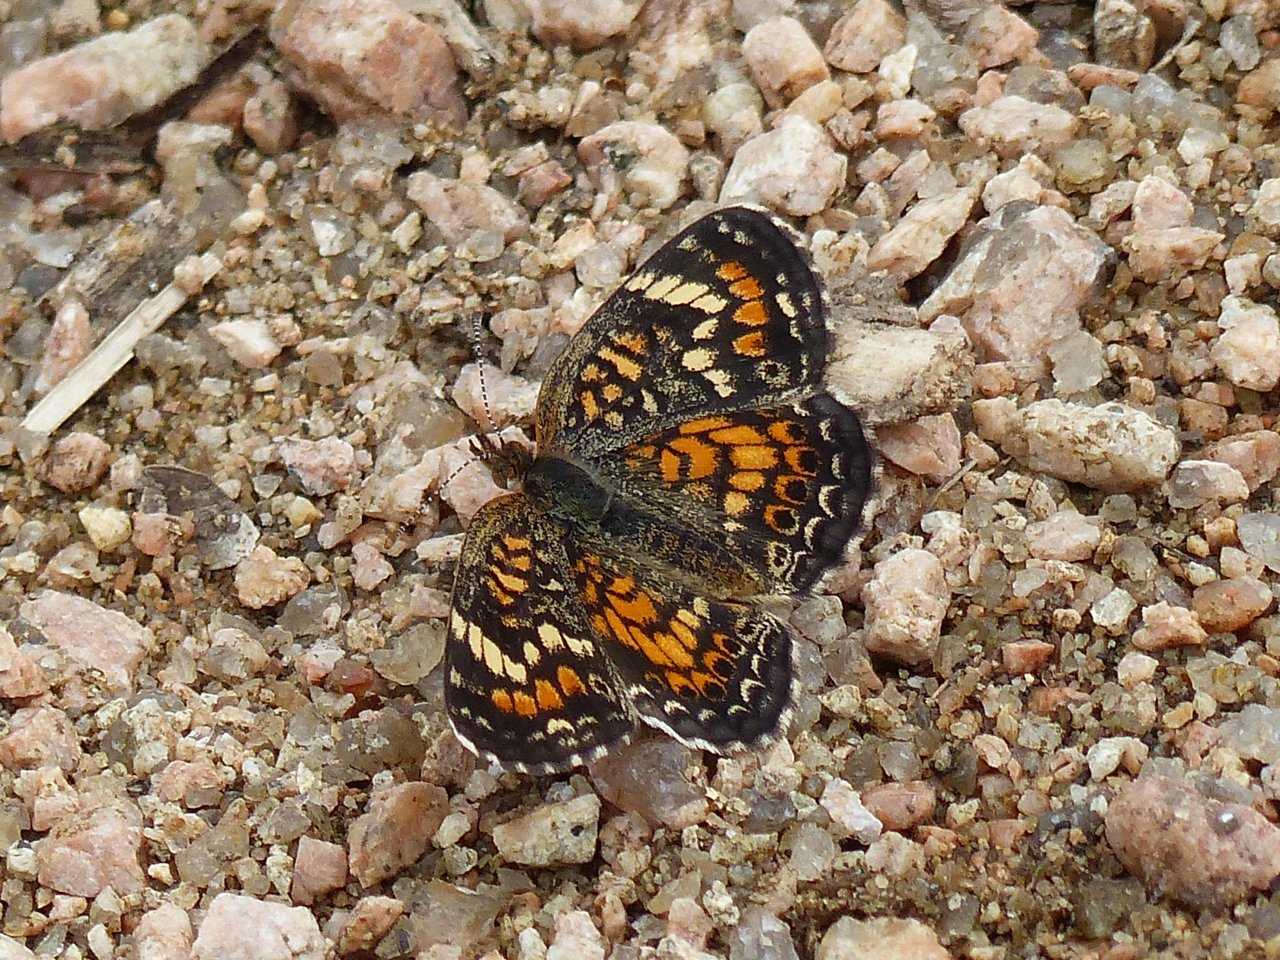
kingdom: Animalia
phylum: Arthropoda
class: Insecta
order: Lepidoptera
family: Nymphalidae
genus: Phyciodes
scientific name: Phyciodes phaon
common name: Phaon Crescent
